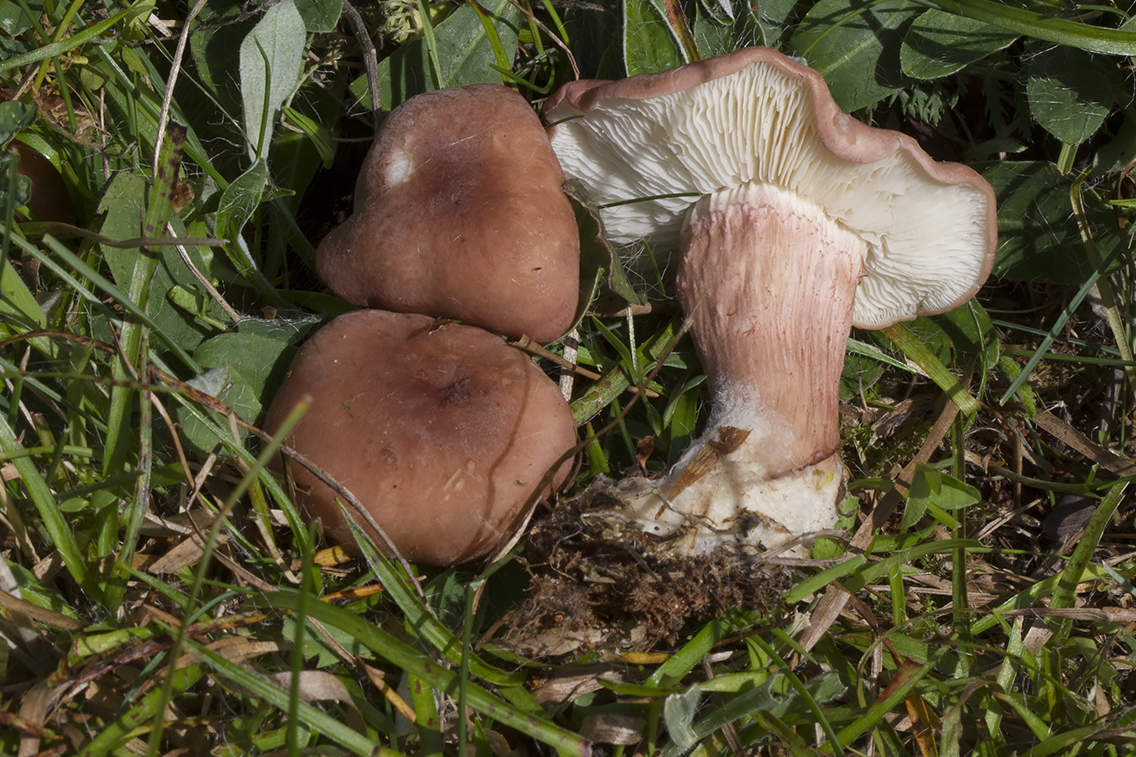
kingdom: Fungi
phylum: Basidiomycota
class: Agaricomycetes
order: Agaricales
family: Lyophyllaceae
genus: Calocybe
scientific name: Calocybe carnea
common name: rosa fagerhat
